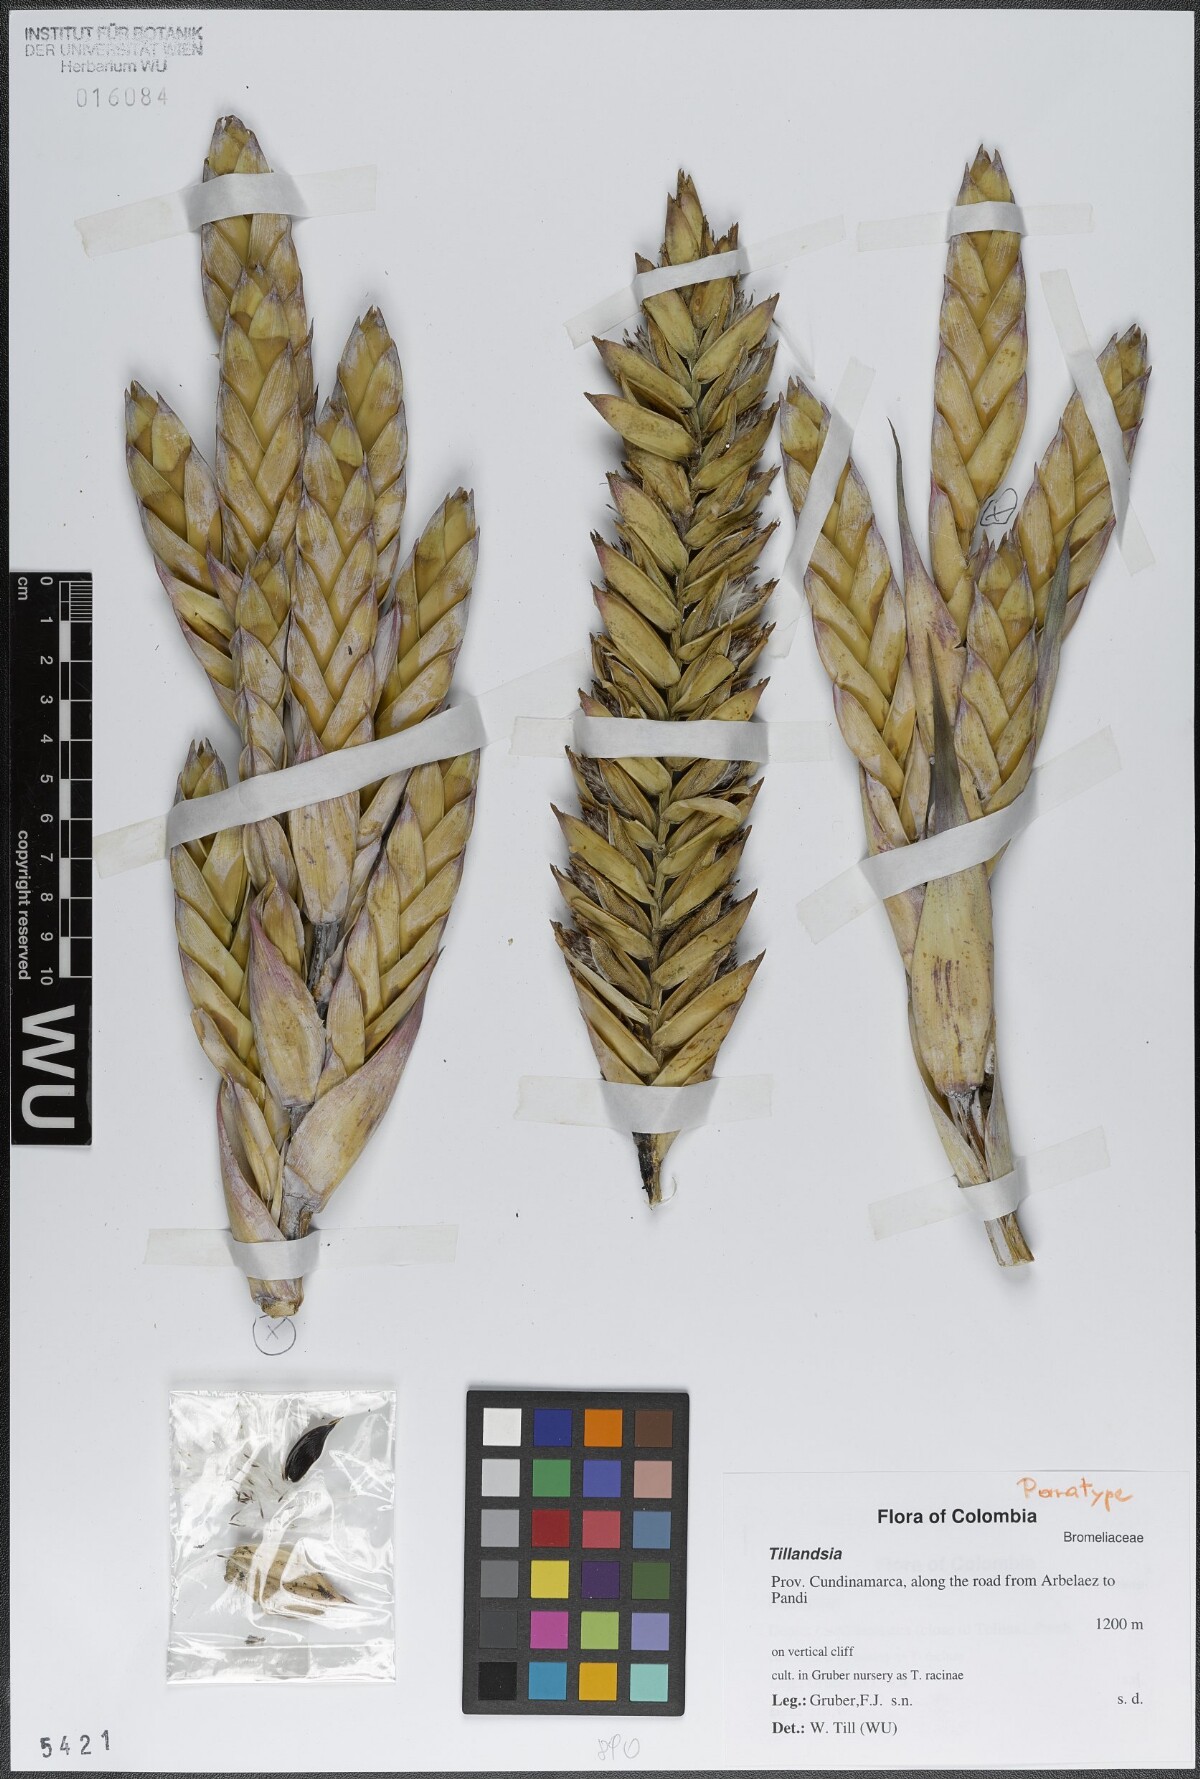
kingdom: Plantae
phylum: Tracheophyta
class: Liliopsida
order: Poales
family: Bromeliaceae
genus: Tillandsia
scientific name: Tillandsia
